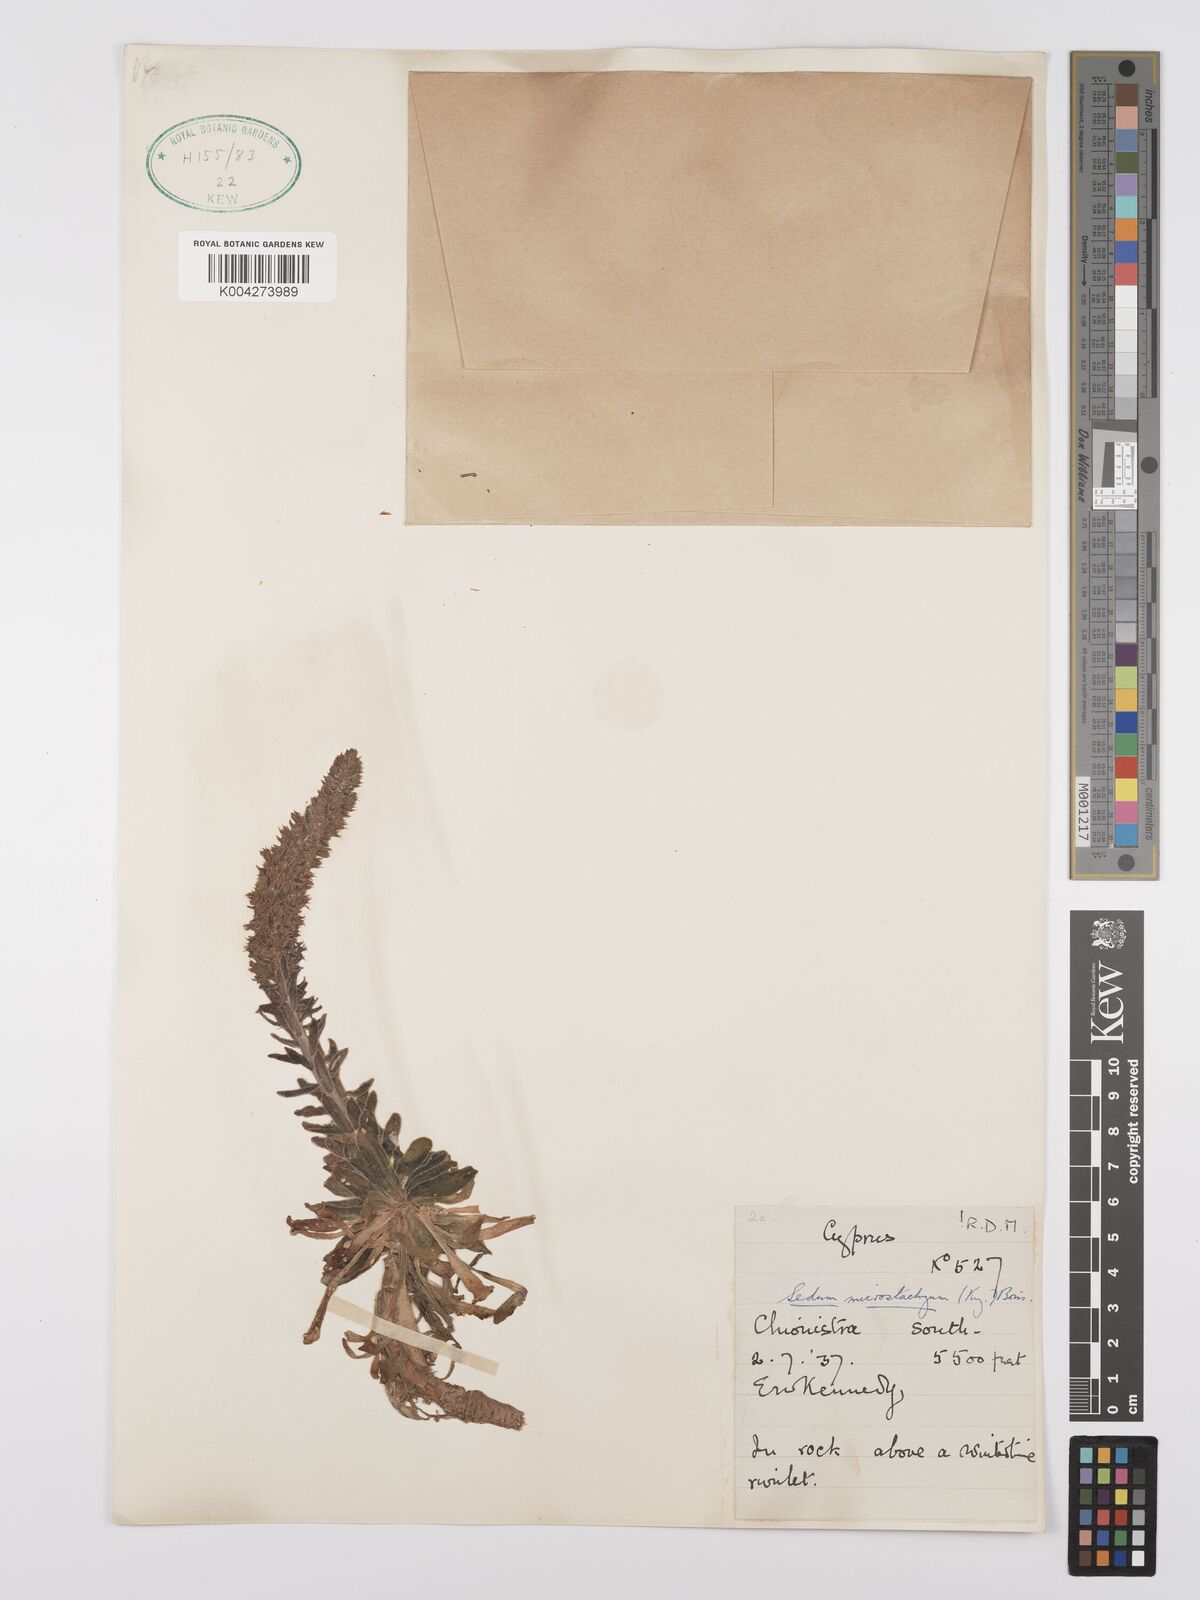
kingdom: Plantae
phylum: Tracheophyta
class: Magnoliopsida
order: Saxifragales
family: Crassulaceae
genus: Sedum
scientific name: Sedum microstachyum
